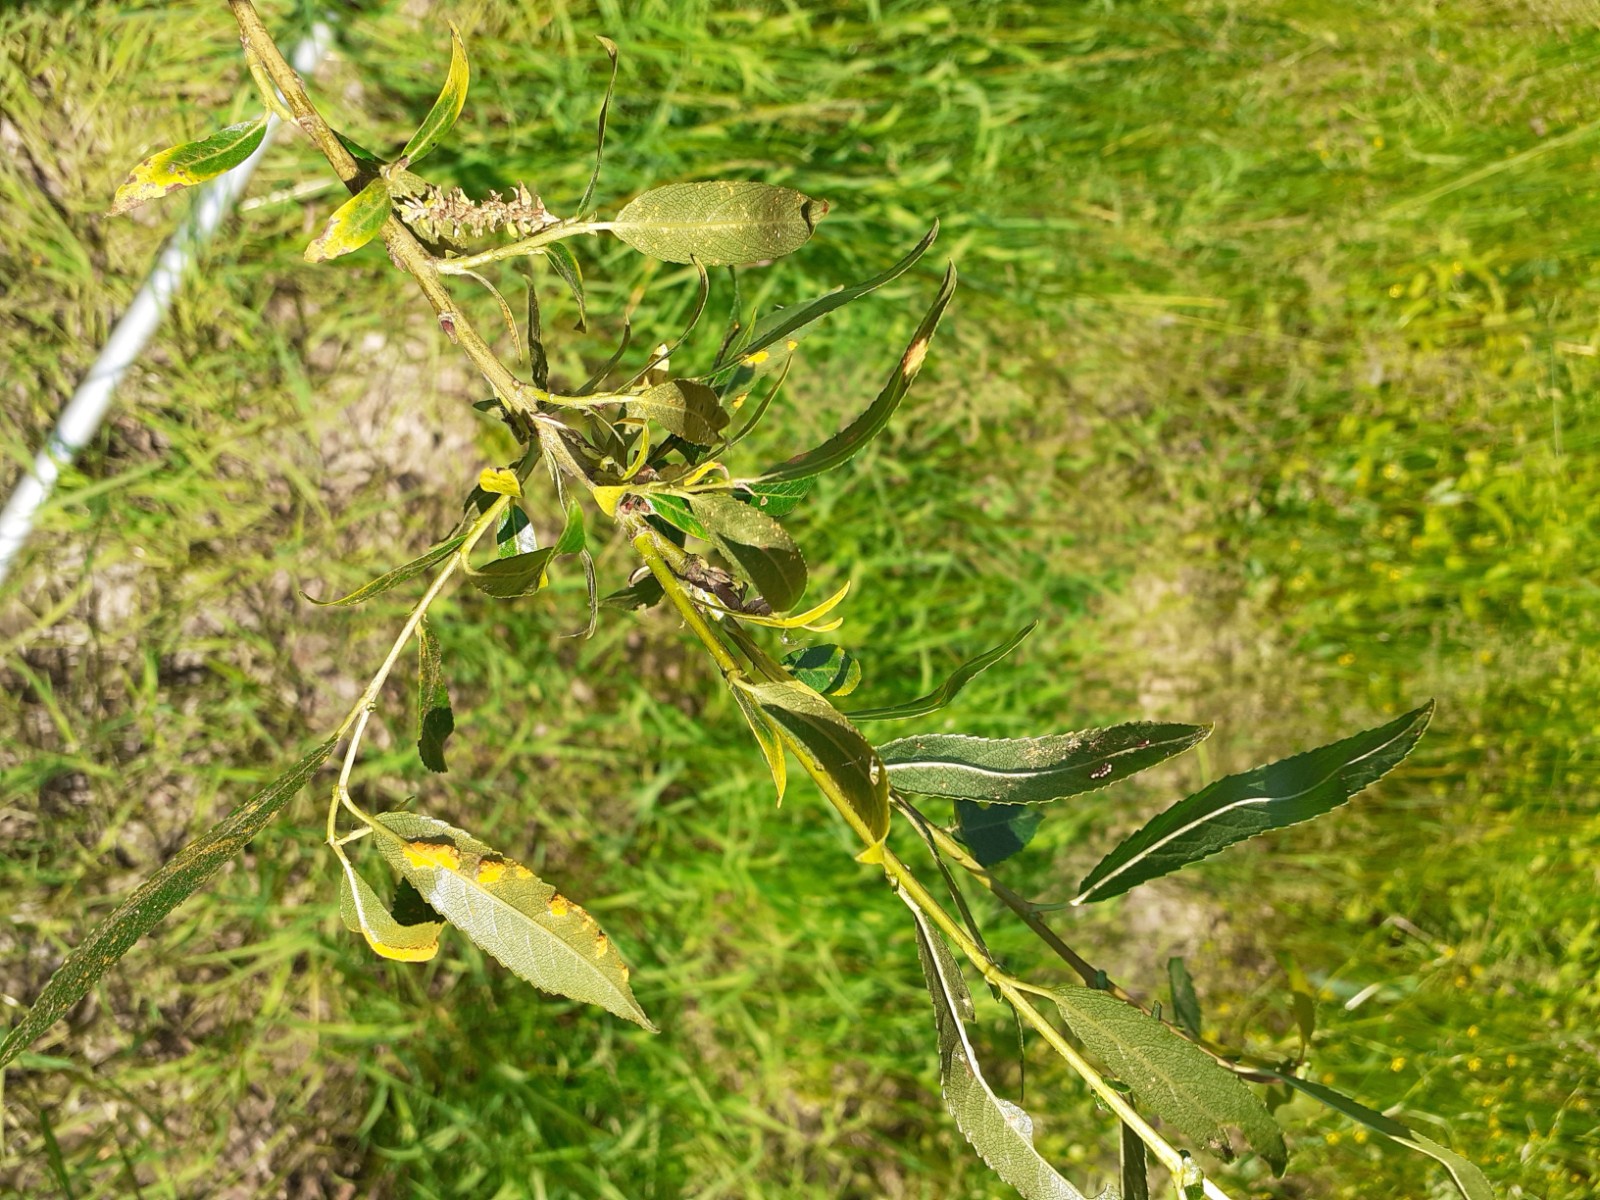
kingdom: Fungi
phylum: Basidiomycota
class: Pucciniomycetes
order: Pucciniales
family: Melampsoraceae
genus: Melampsora
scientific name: Melampsora laricis-pentandrae
